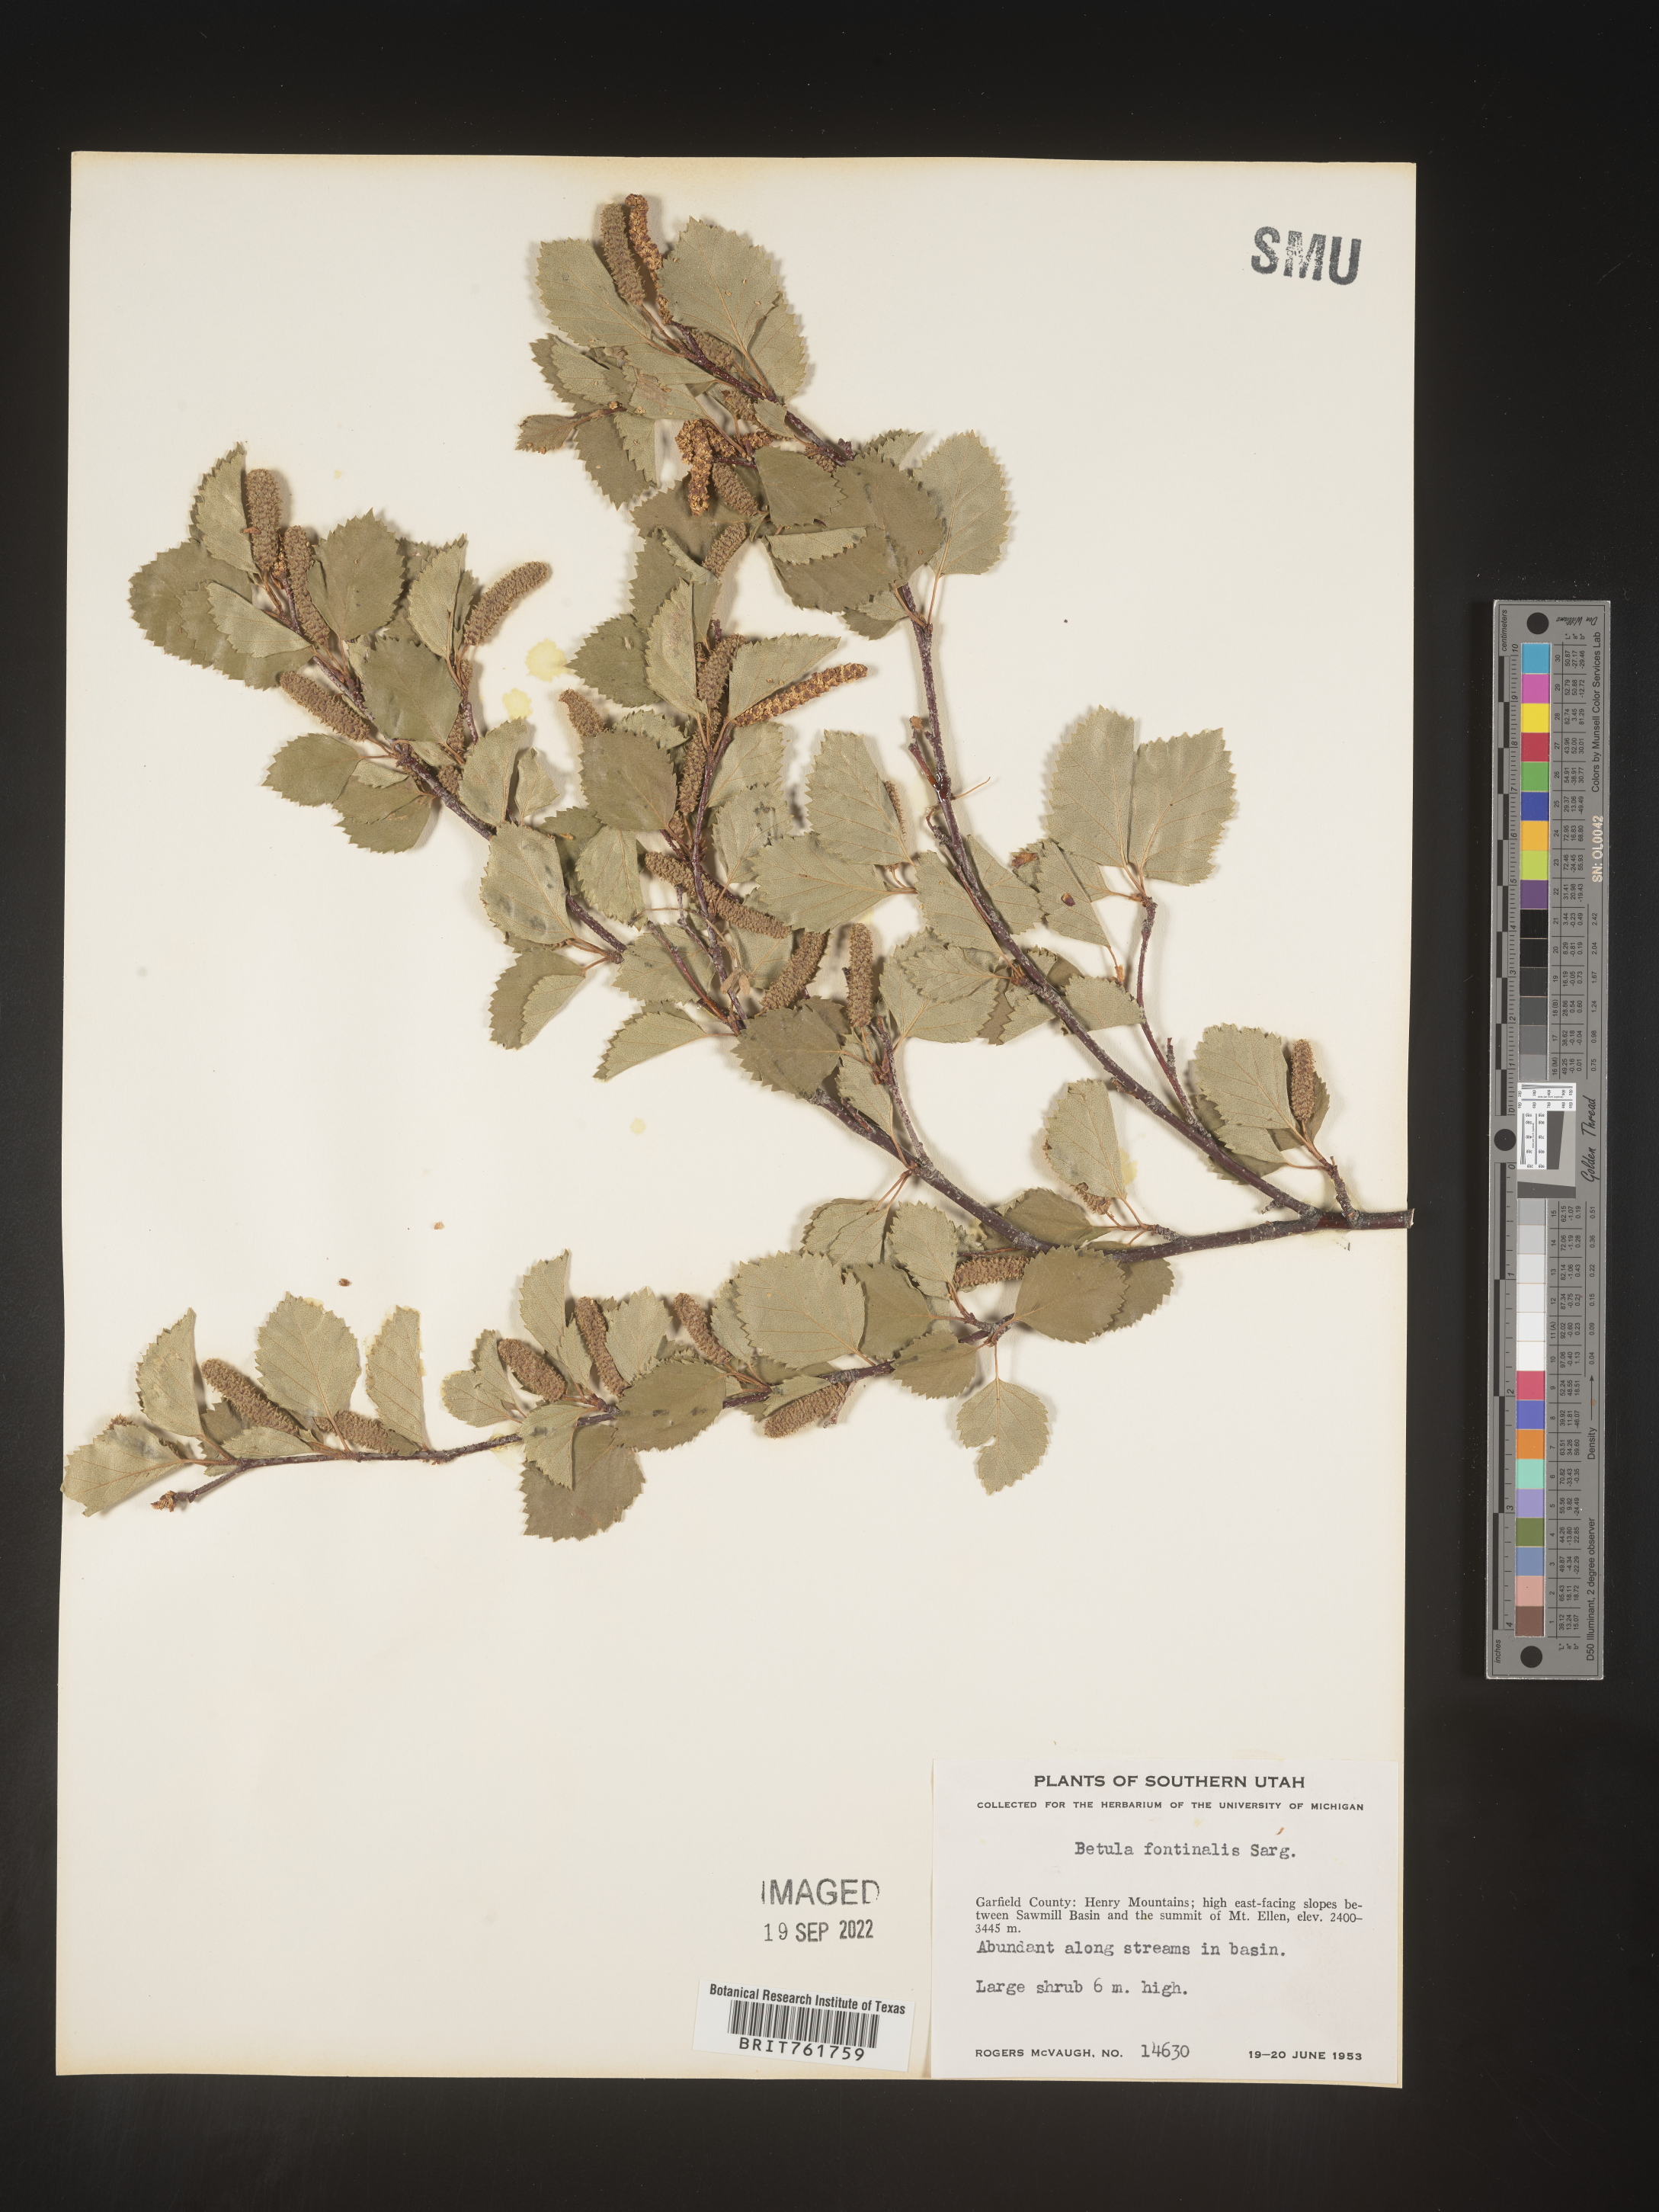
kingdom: Plantae
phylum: Tracheophyta
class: Magnoliopsida
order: Fagales
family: Betulaceae
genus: Betula
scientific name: Betula occidentalis
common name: River birch
